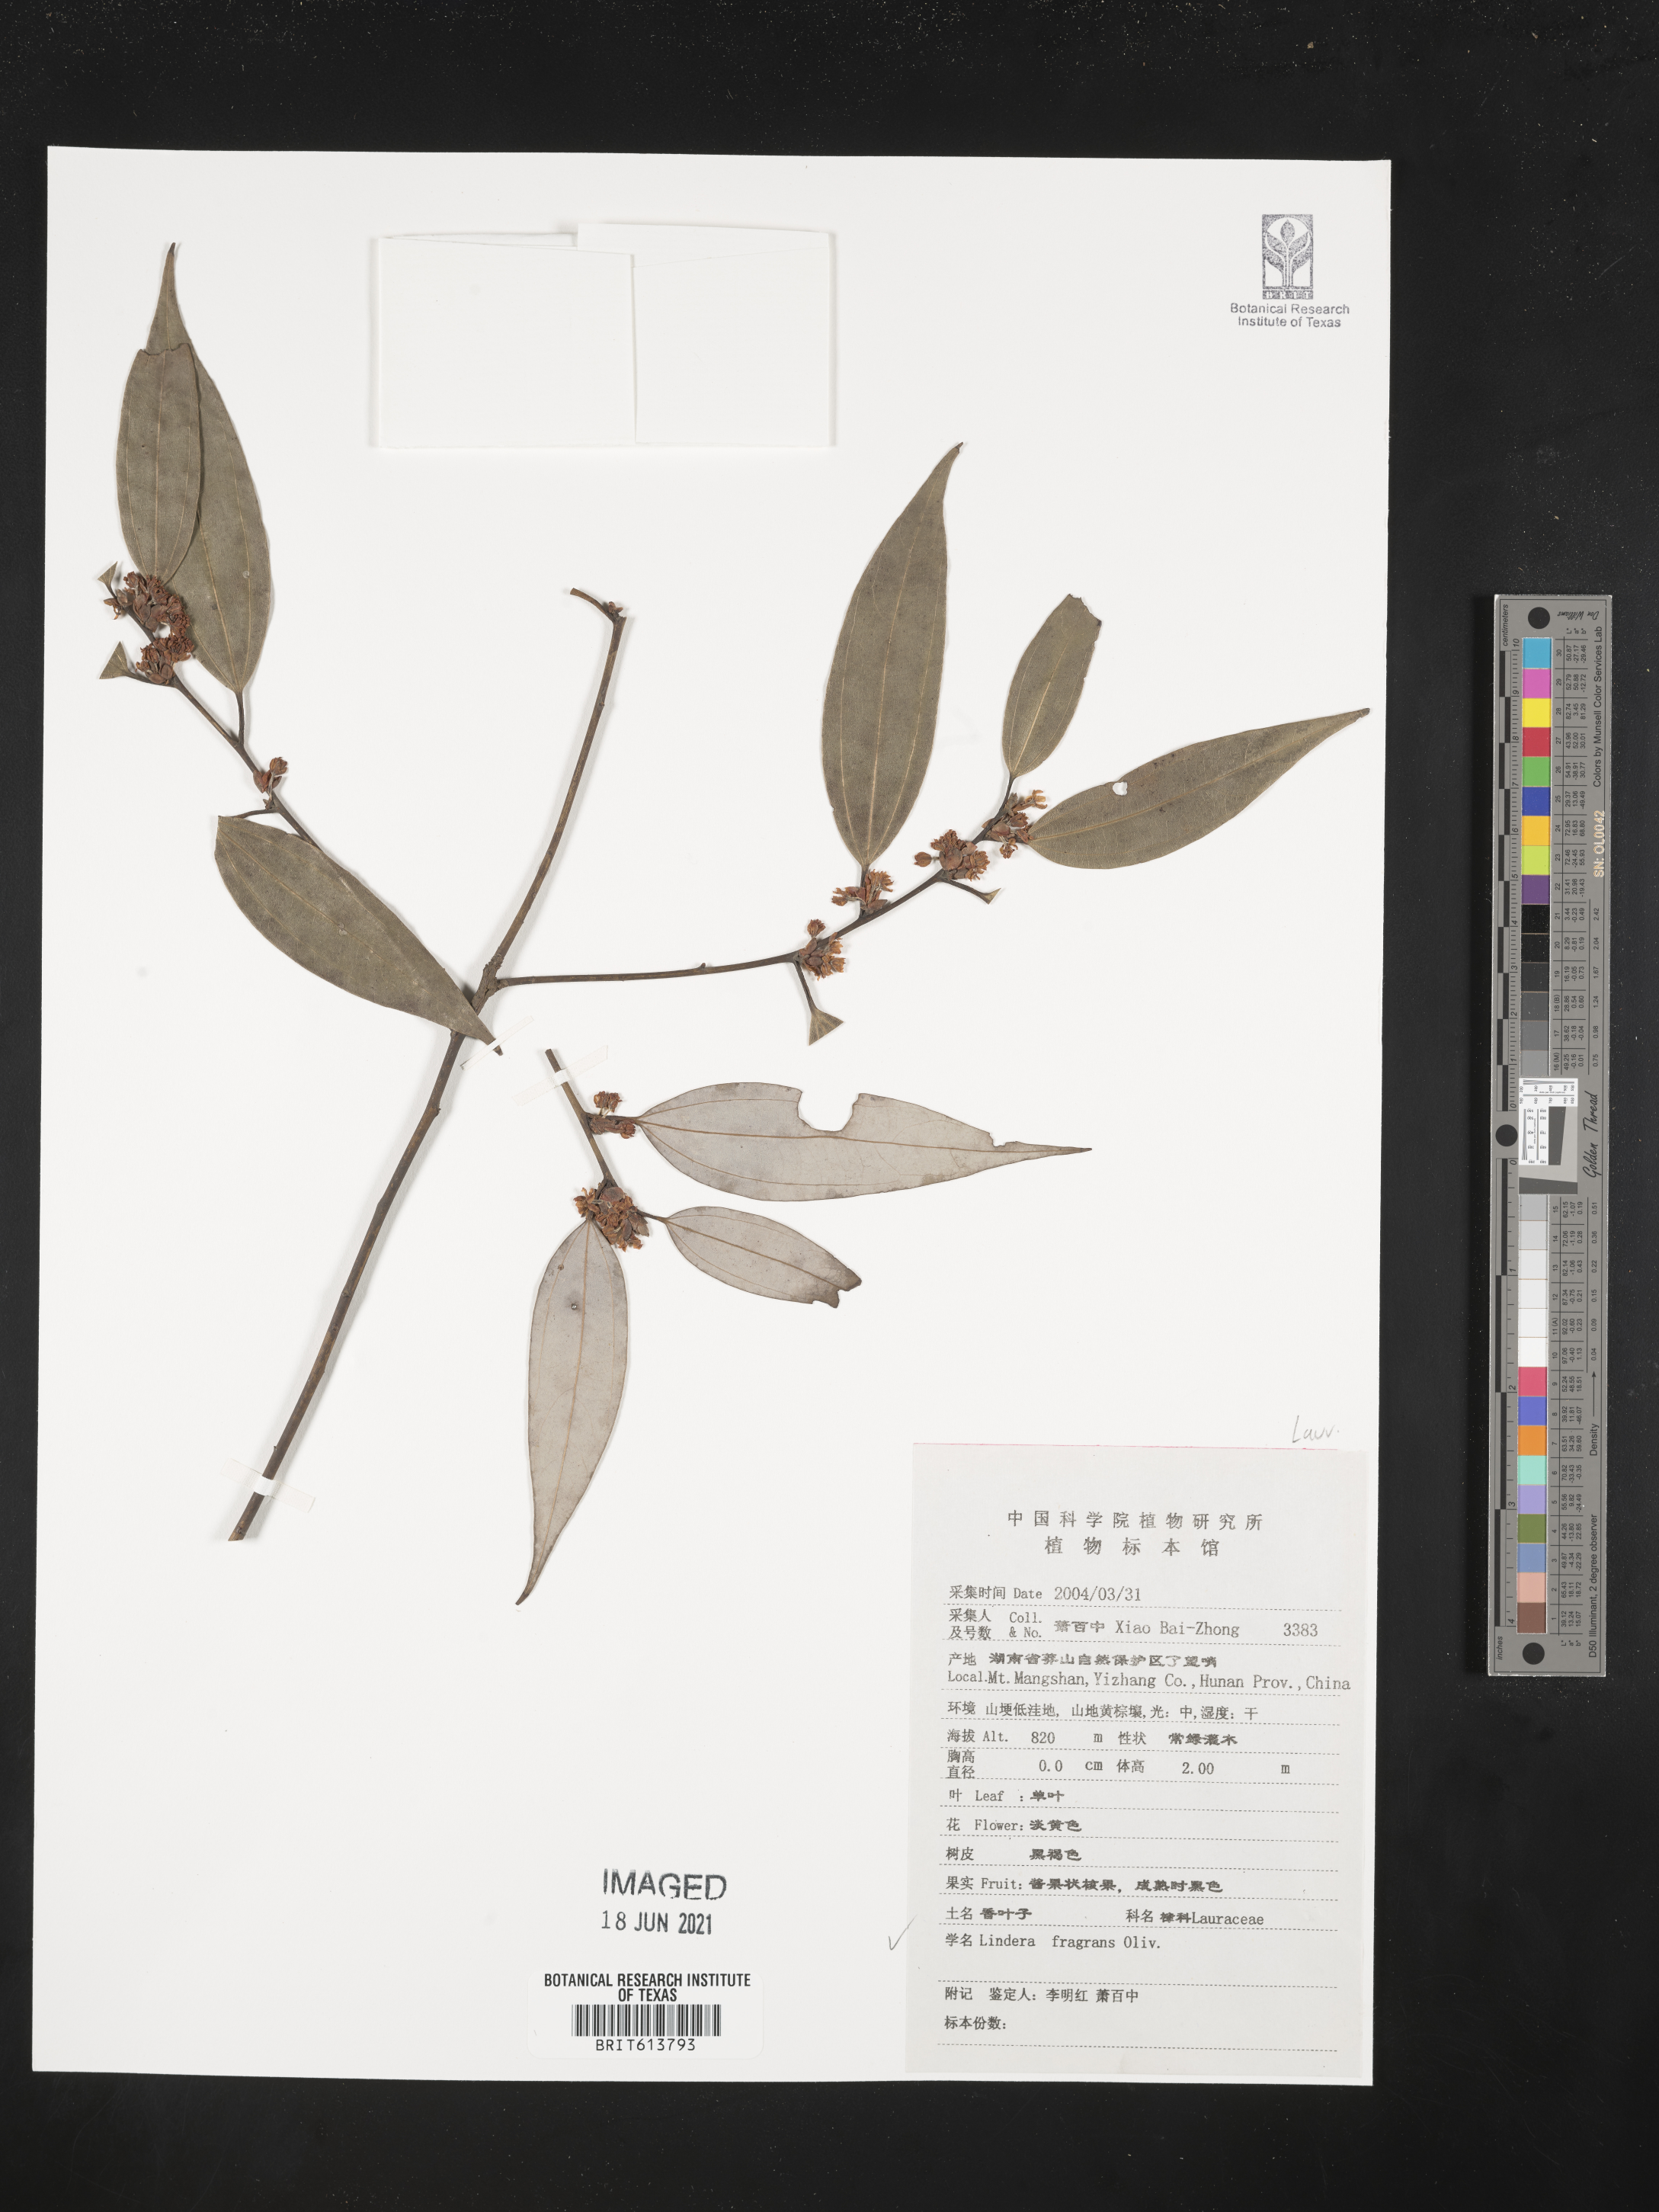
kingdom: Plantae
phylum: Tracheophyta
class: Magnoliopsida
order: Laurales
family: Lauraceae
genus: Lindera
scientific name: Lindera fragrans
